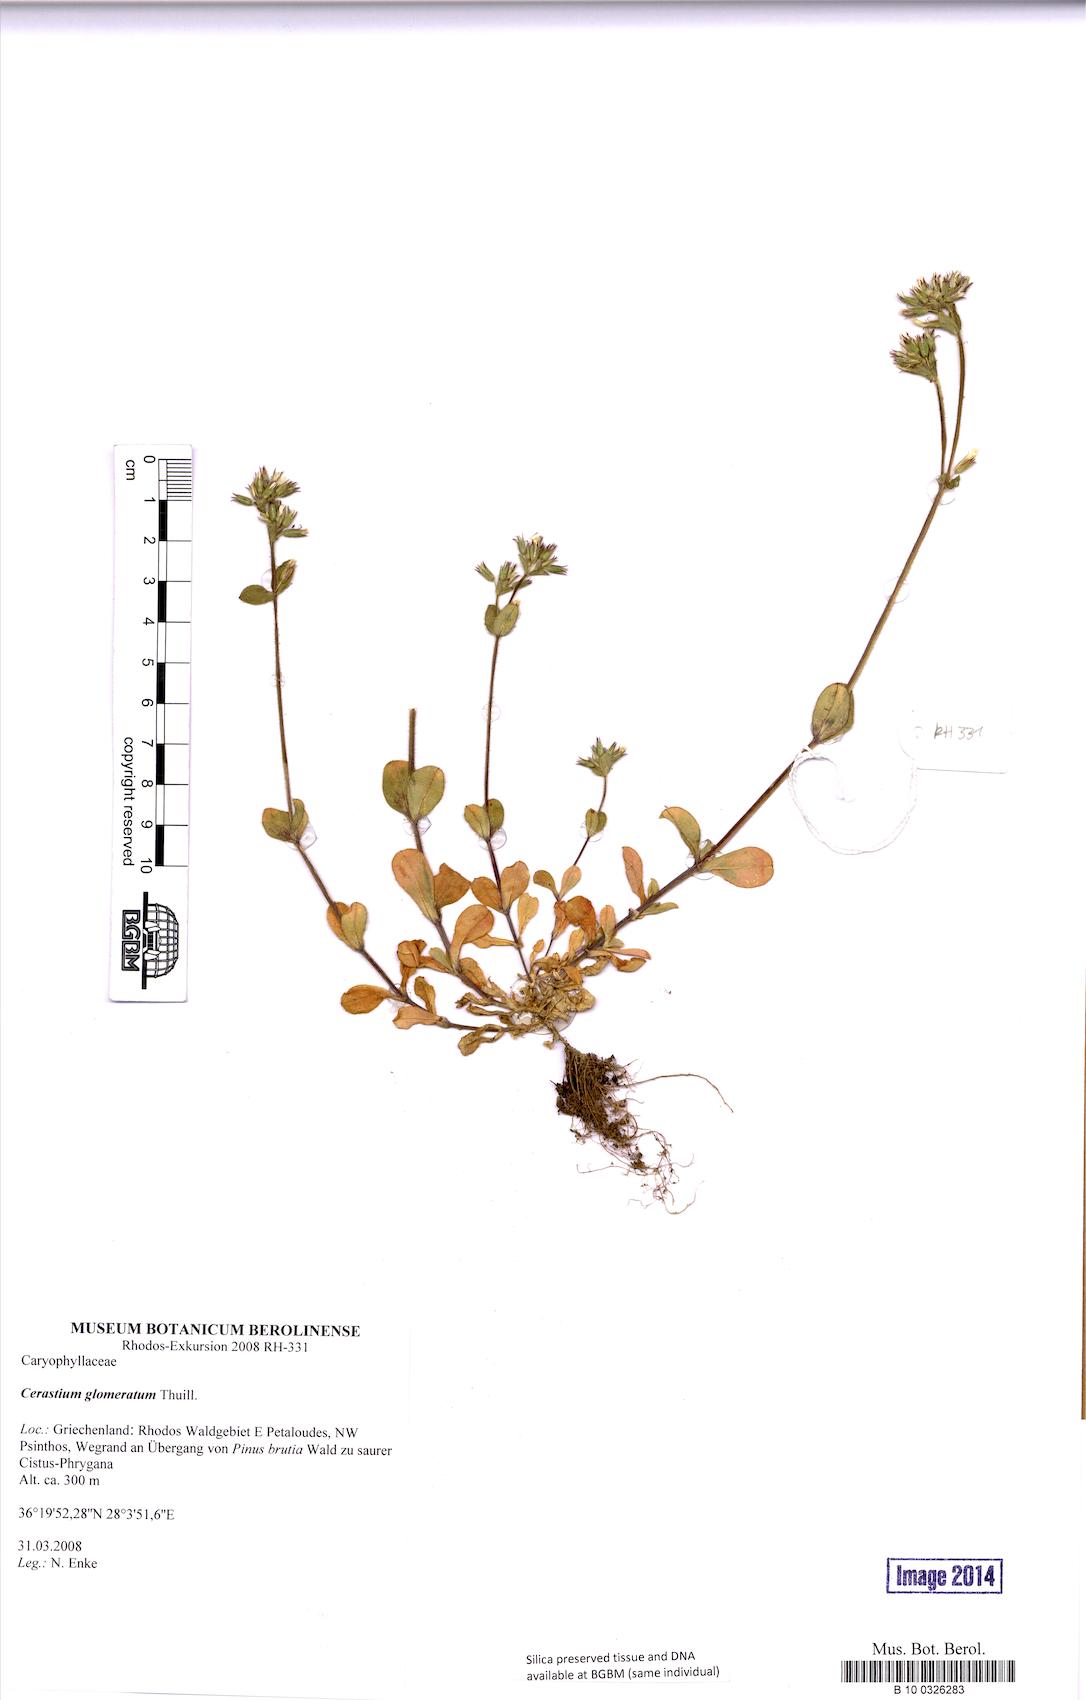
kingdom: Plantae
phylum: Tracheophyta
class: Magnoliopsida
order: Caryophyllales
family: Caryophyllaceae
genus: Cerastium
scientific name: Cerastium glomeratum
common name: Sticky chickweed
